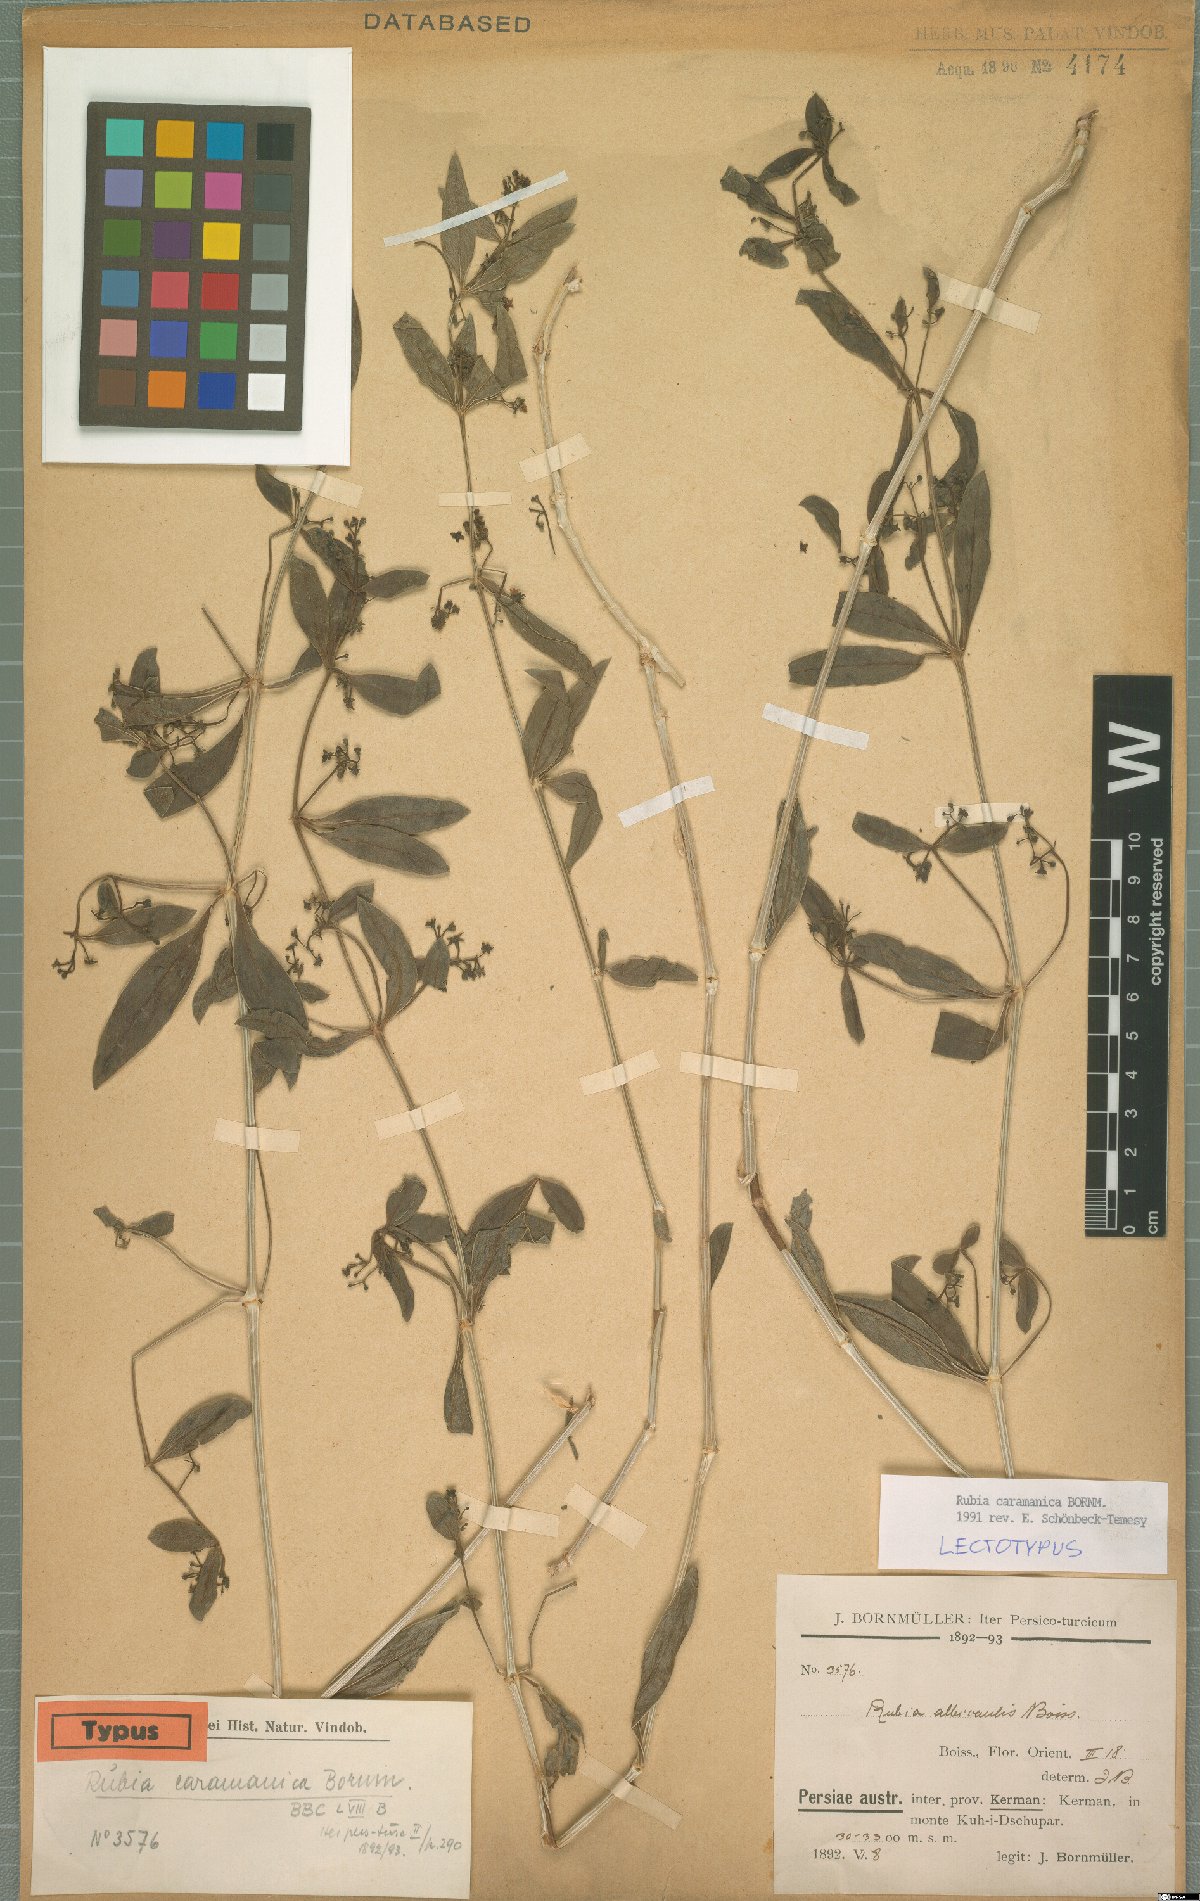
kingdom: Plantae
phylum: Tracheophyta
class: Magnoliopsida
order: Gentianales
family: Rubiaceae
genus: Rubia
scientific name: Rubia caramanica
